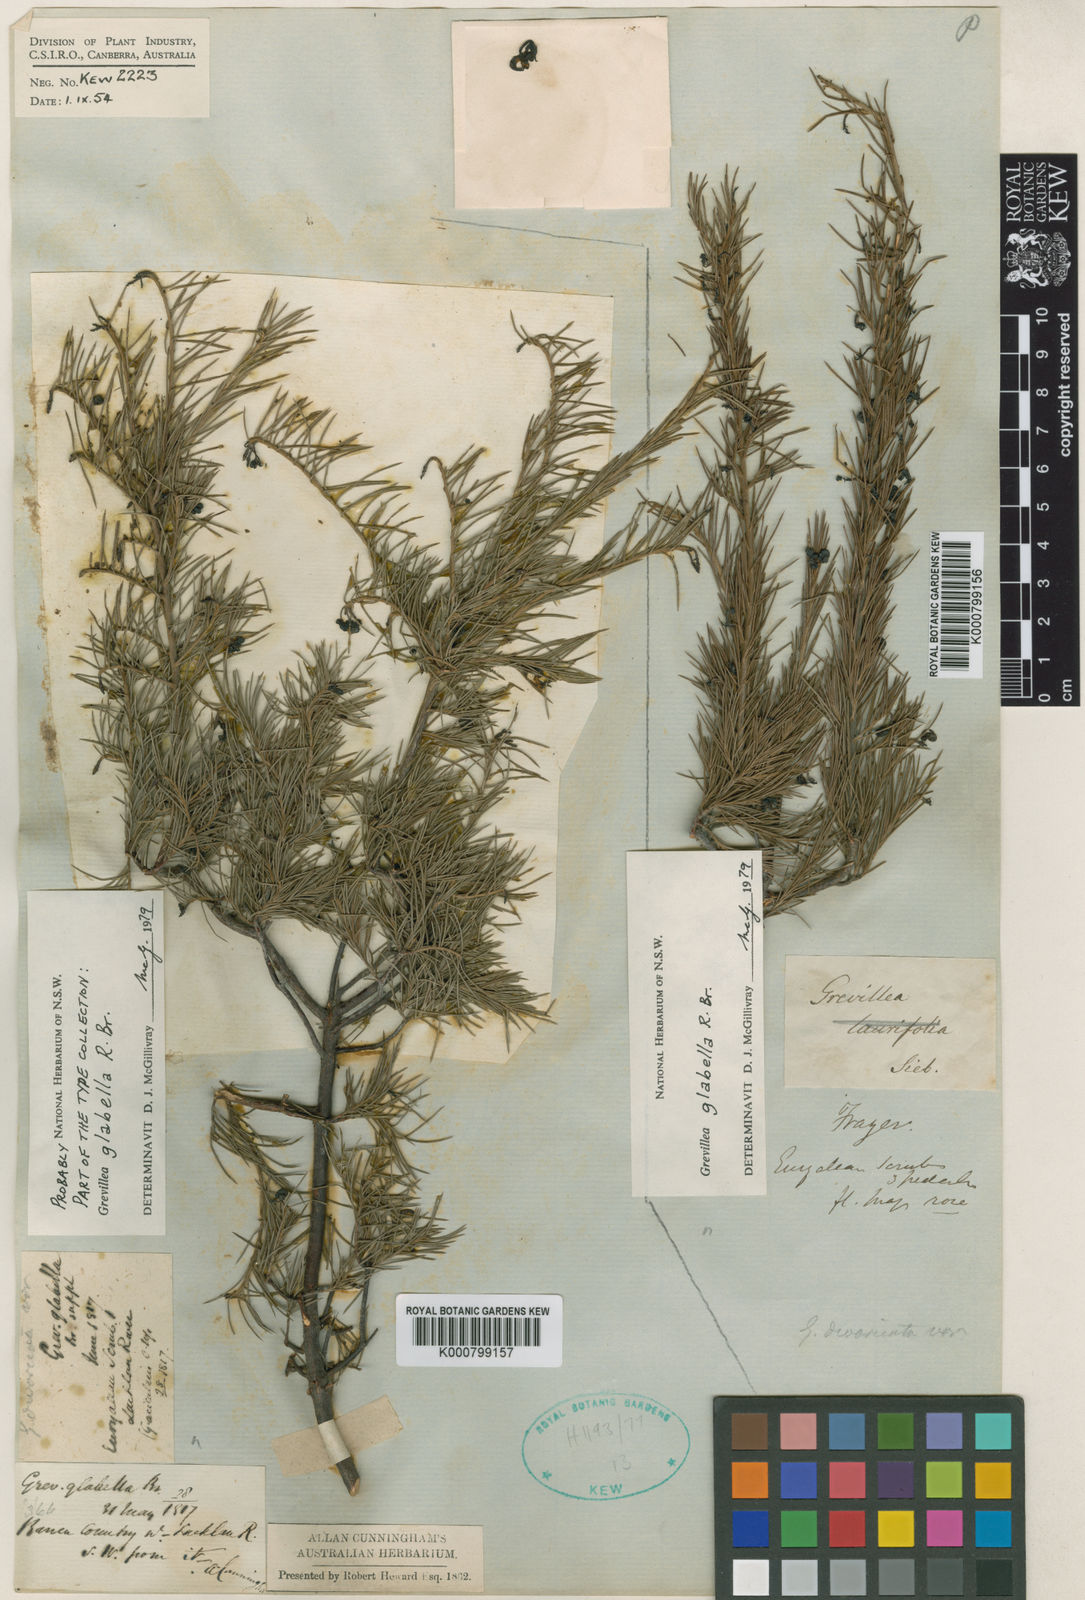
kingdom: Plantae
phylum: Tracheophyta
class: Magnoliopsida
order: Proteales
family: Proteaceae
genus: Grevillea
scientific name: Grevillea rosmarinifolia
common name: Rosemary grevillea
